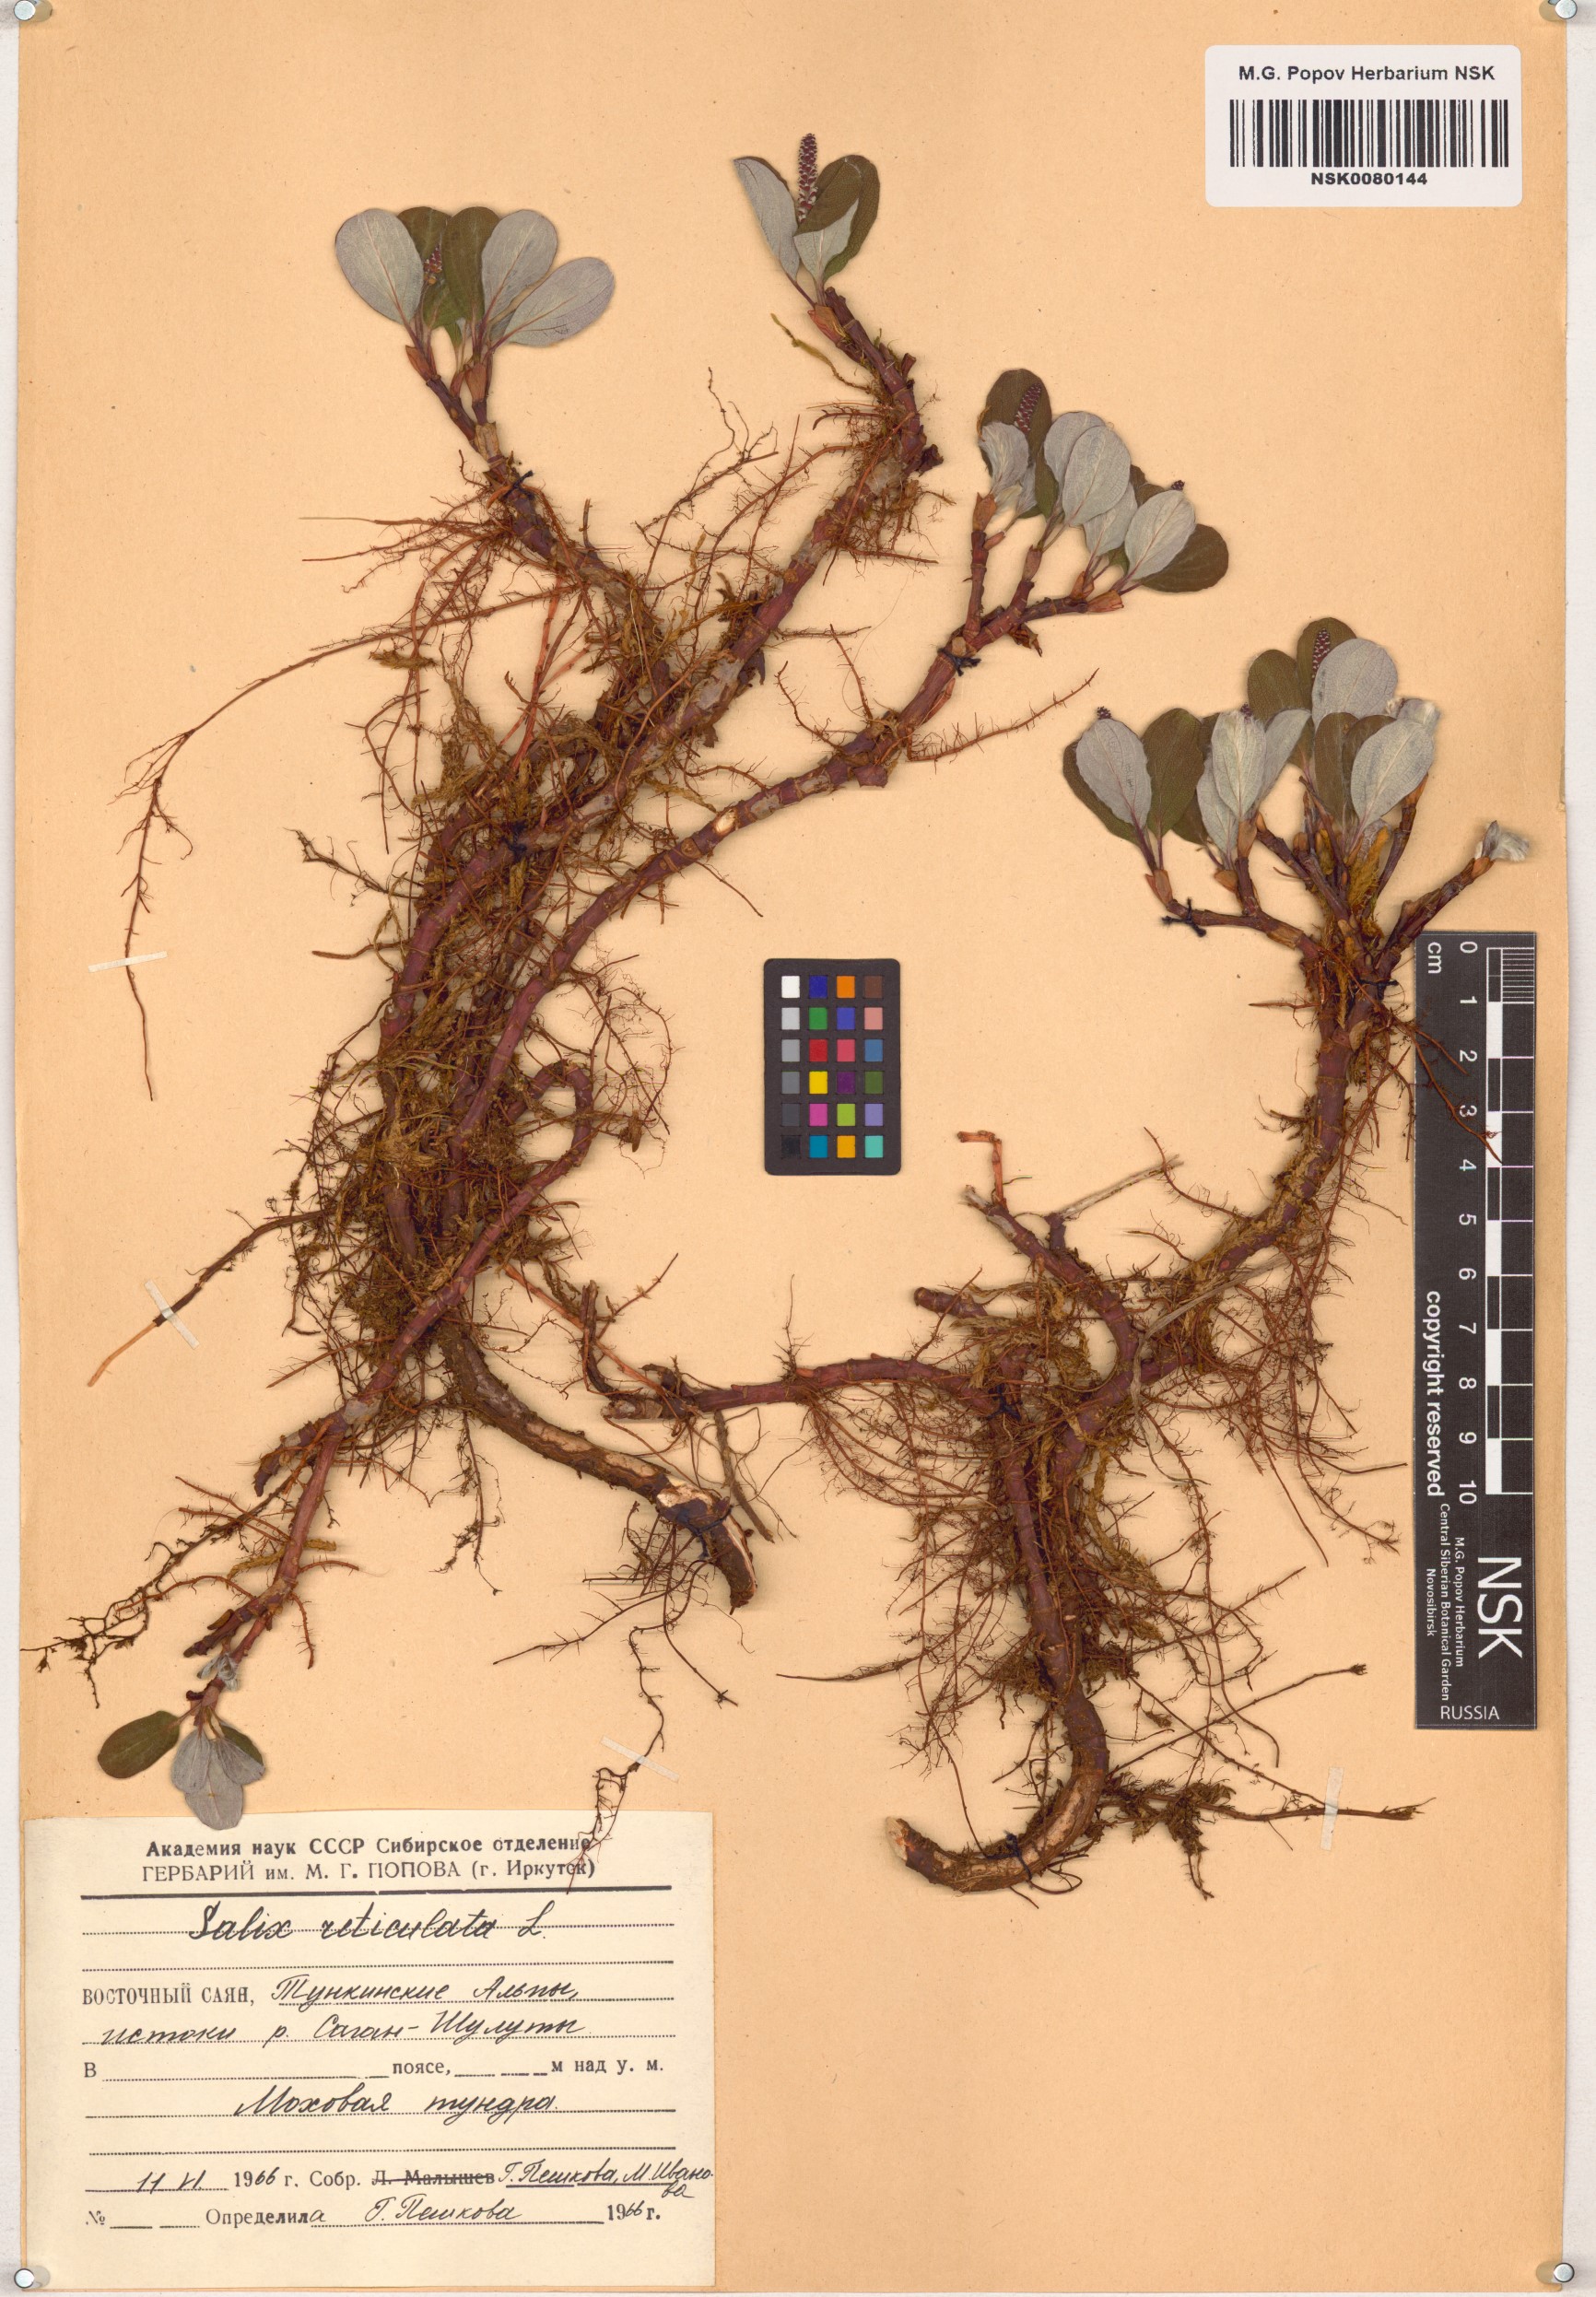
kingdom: Plantae
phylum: Tracheophyta
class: Magnoliopsida
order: Malpighiales
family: Salicaceae
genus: Salix
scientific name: Salix reticulata
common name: Net-leaved willow
